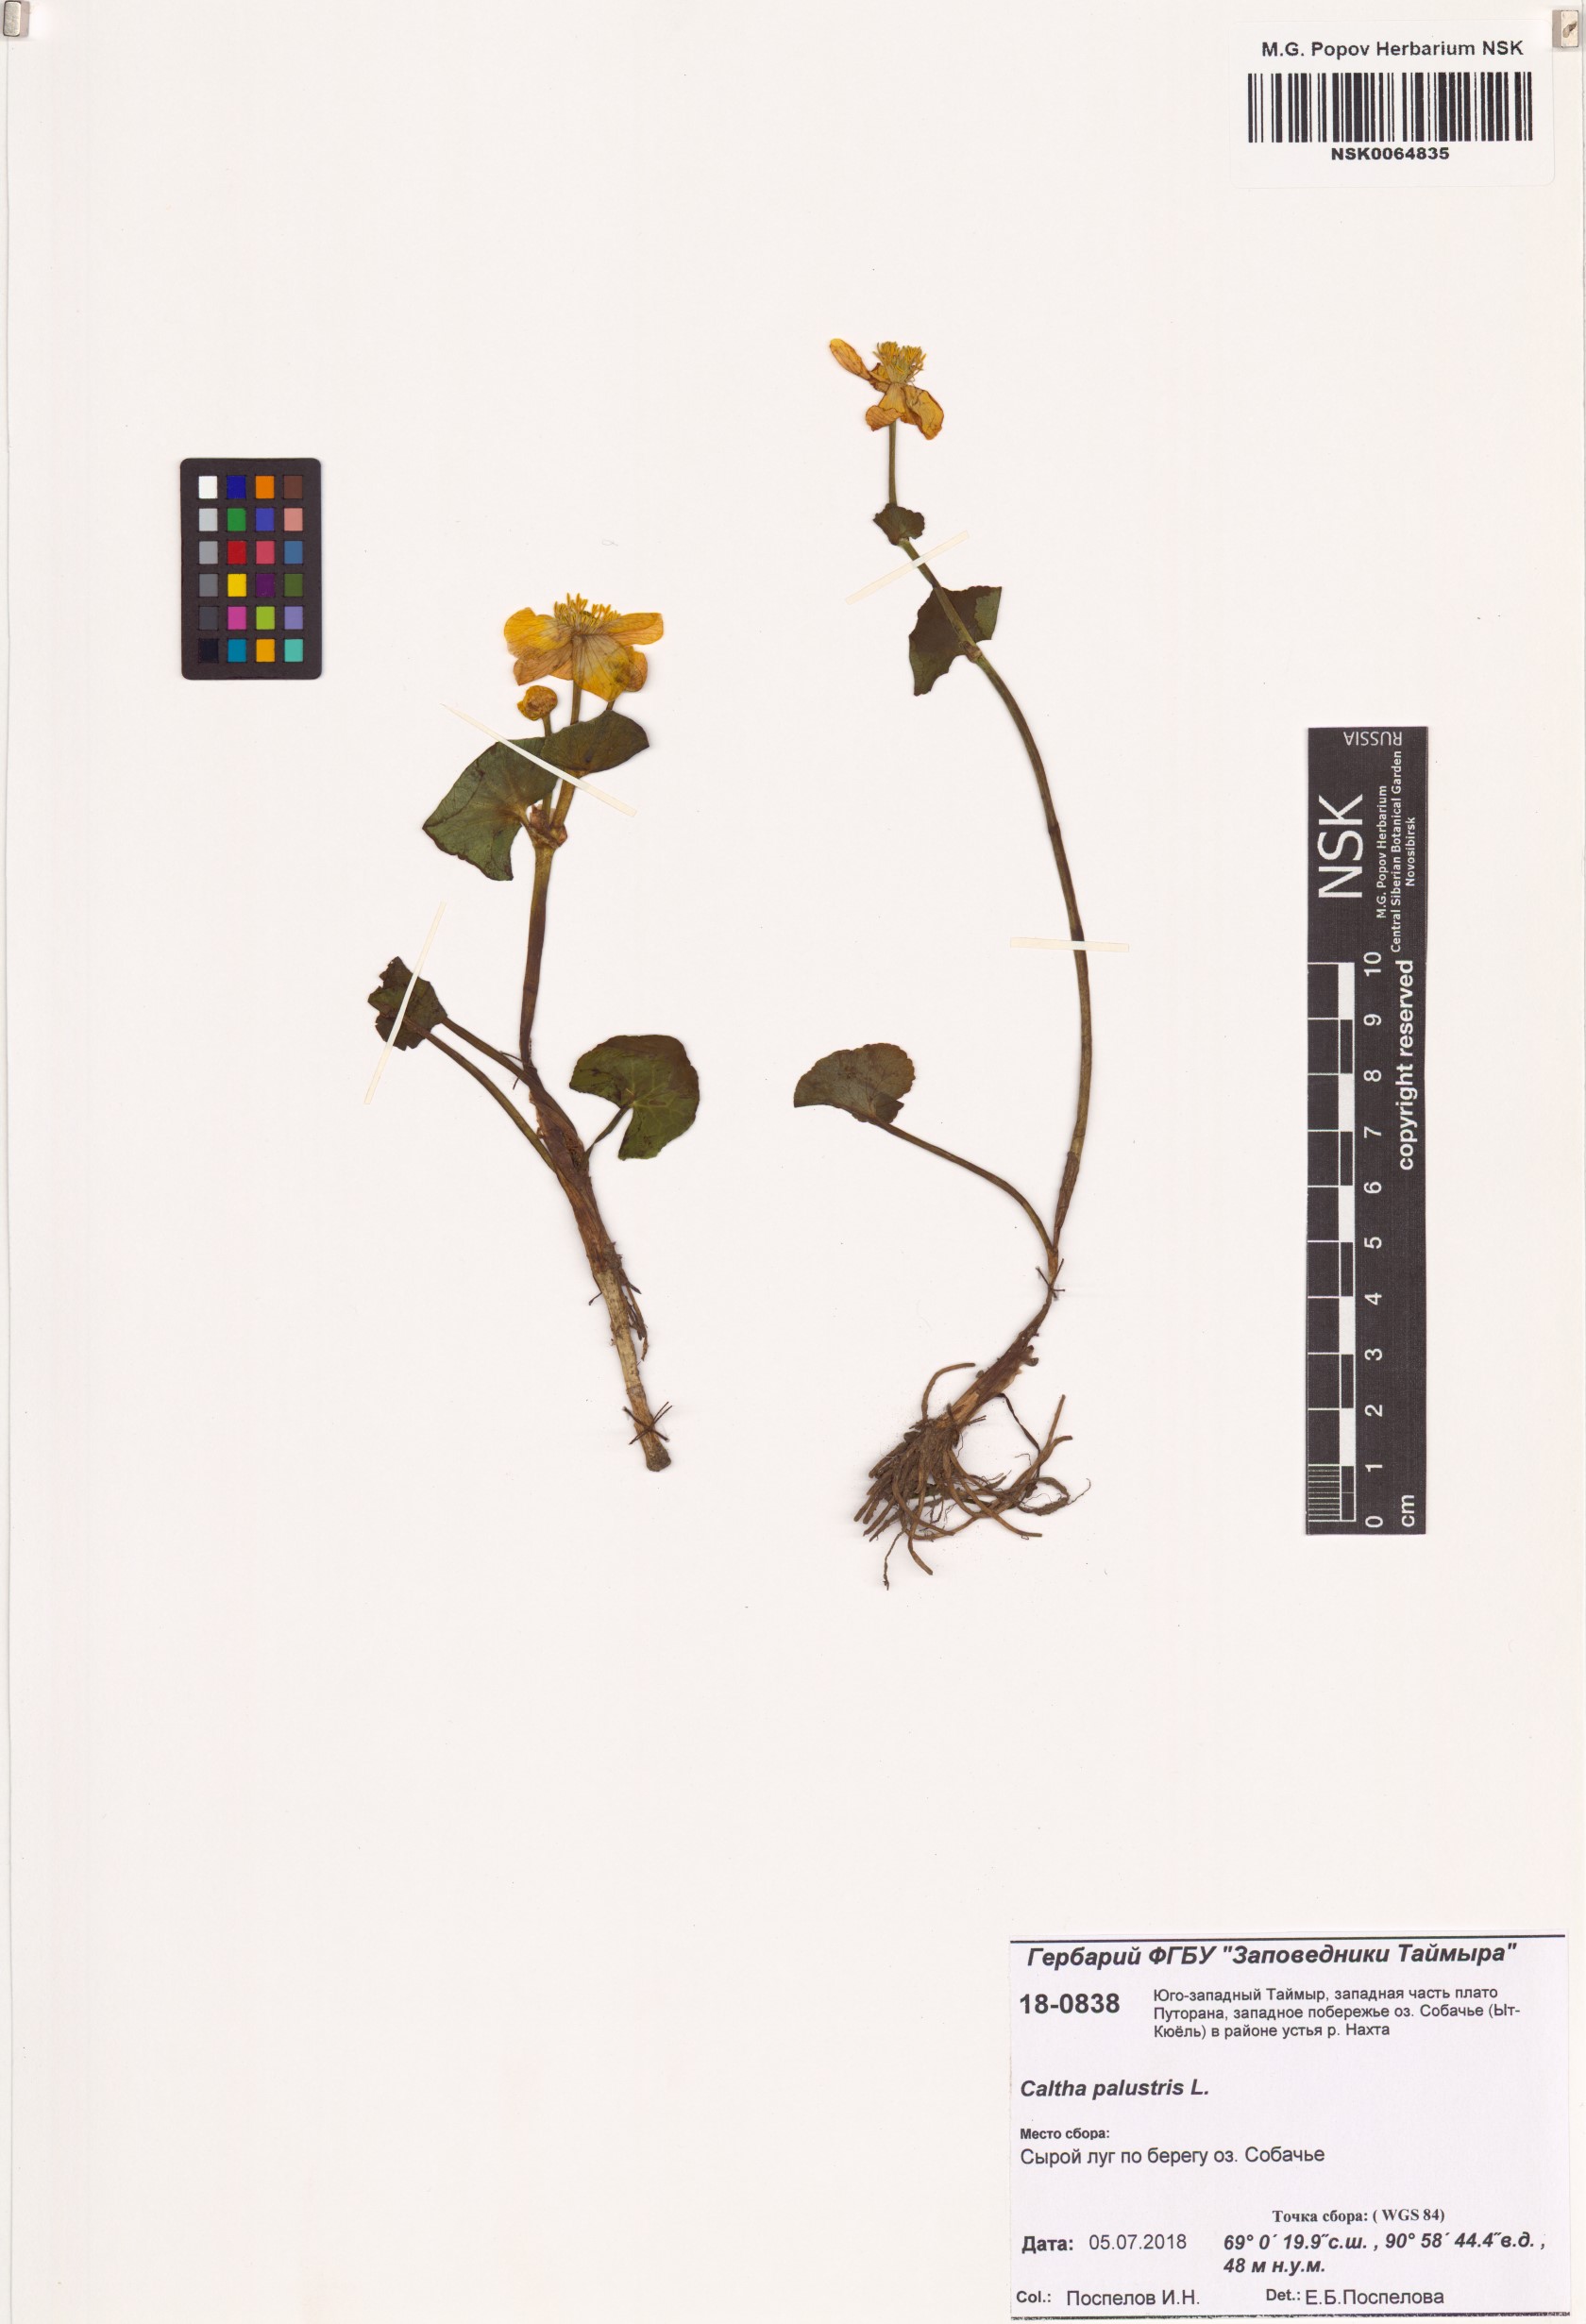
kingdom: Plantae
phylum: Tracheophyta
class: Magnoliopsida
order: Ranunculales
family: Ranunculaceae
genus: Caltha
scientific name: Caltha palustris
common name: Marsh marigold
